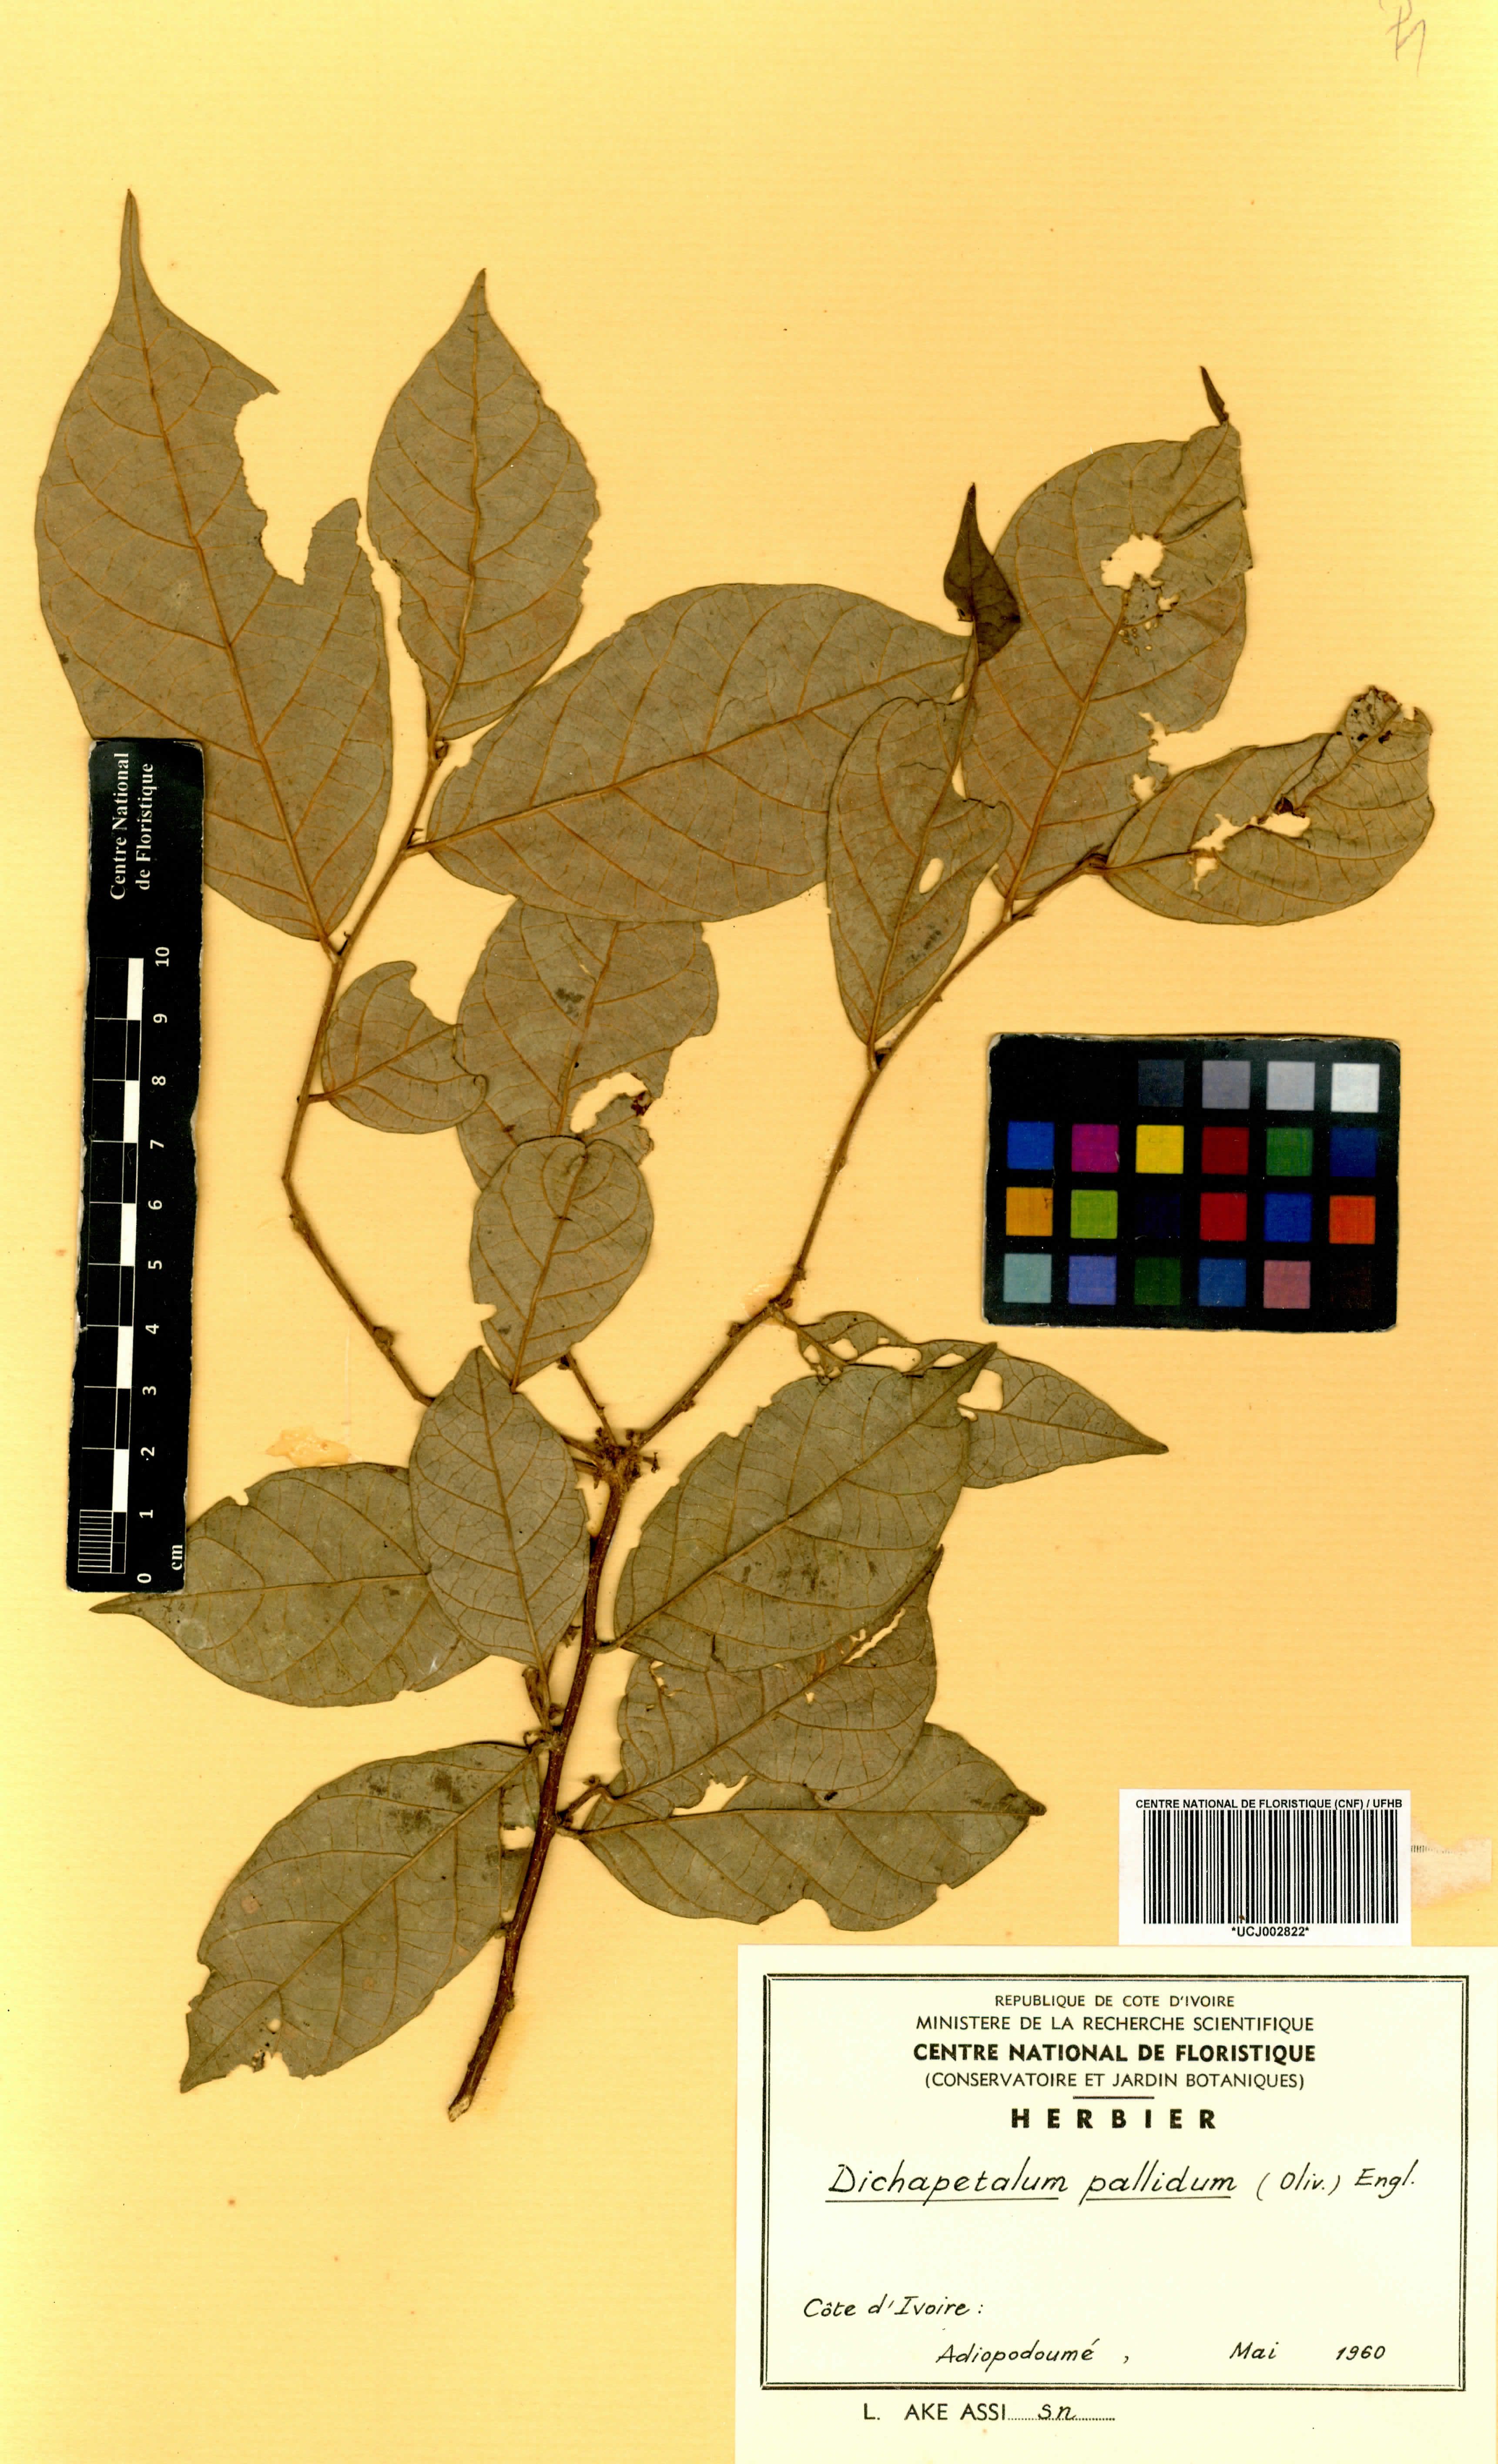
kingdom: Plantae
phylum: Tracheophyta
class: Magnoliopsida
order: Malpighiales
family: Dichapetalaceae
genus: Dichapetalum
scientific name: Dichapetalum pallidum
